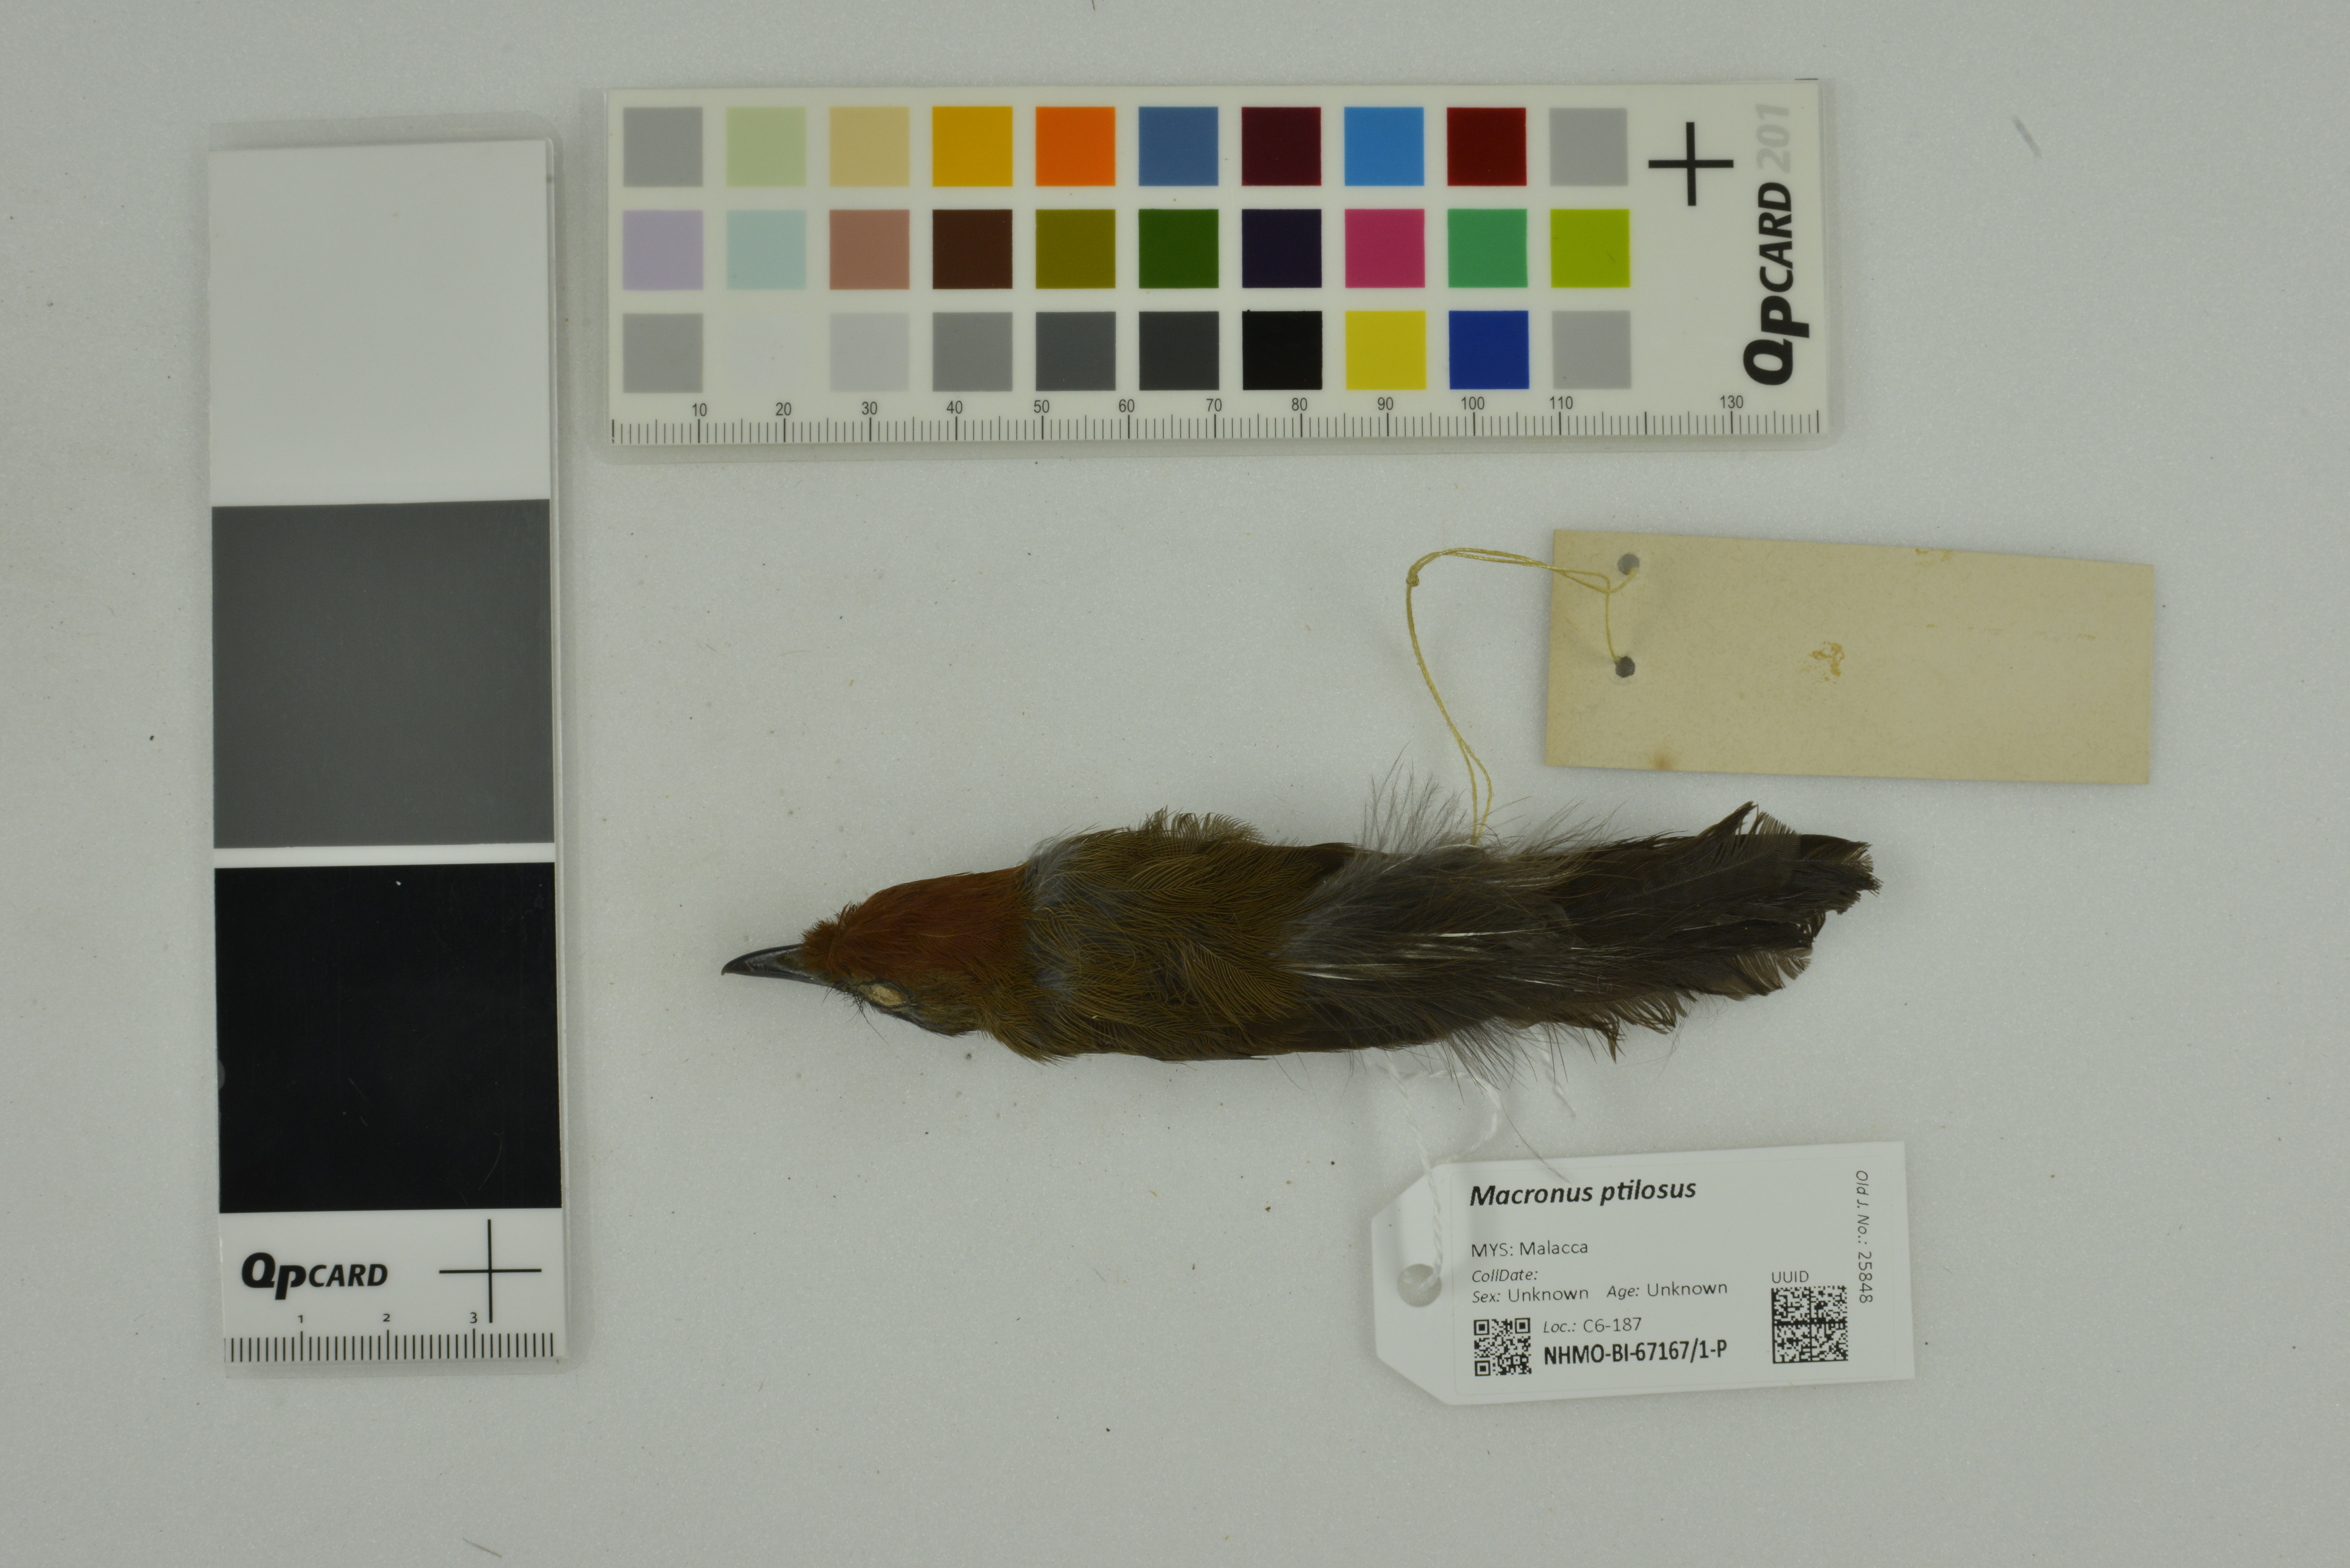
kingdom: Animalia
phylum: Chordata
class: Aves
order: Passeriformes
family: Timaliidae
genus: Macronus
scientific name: Macronus ptilosus
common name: Fluffy-backed tit-babbler
